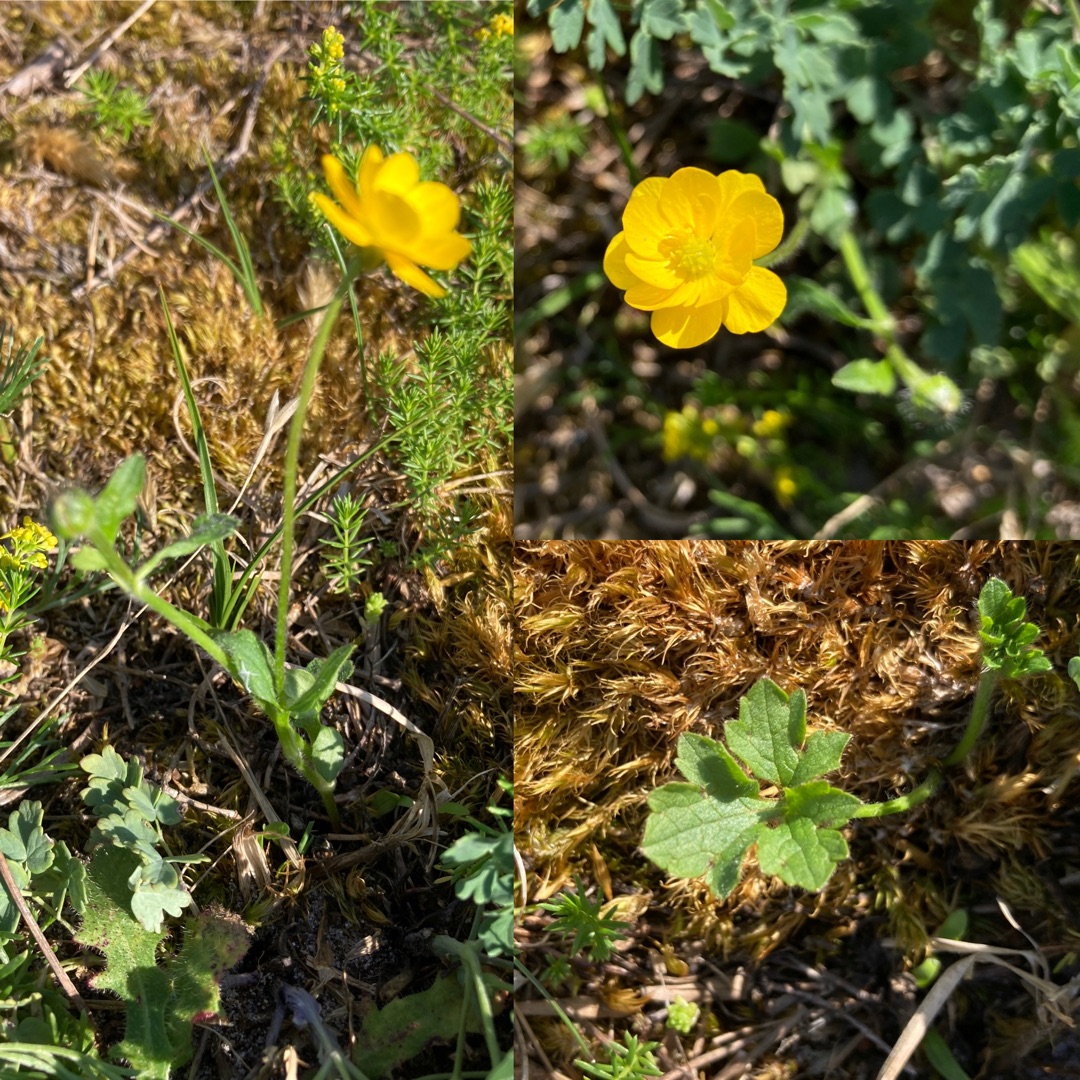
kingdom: Plantae
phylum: Tracheophyta
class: Magnoliopsida
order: Ranunculales
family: Ranunculaceae
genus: Ranunculus
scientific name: Ranunculus bulbosus
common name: Knold-ranunkel
